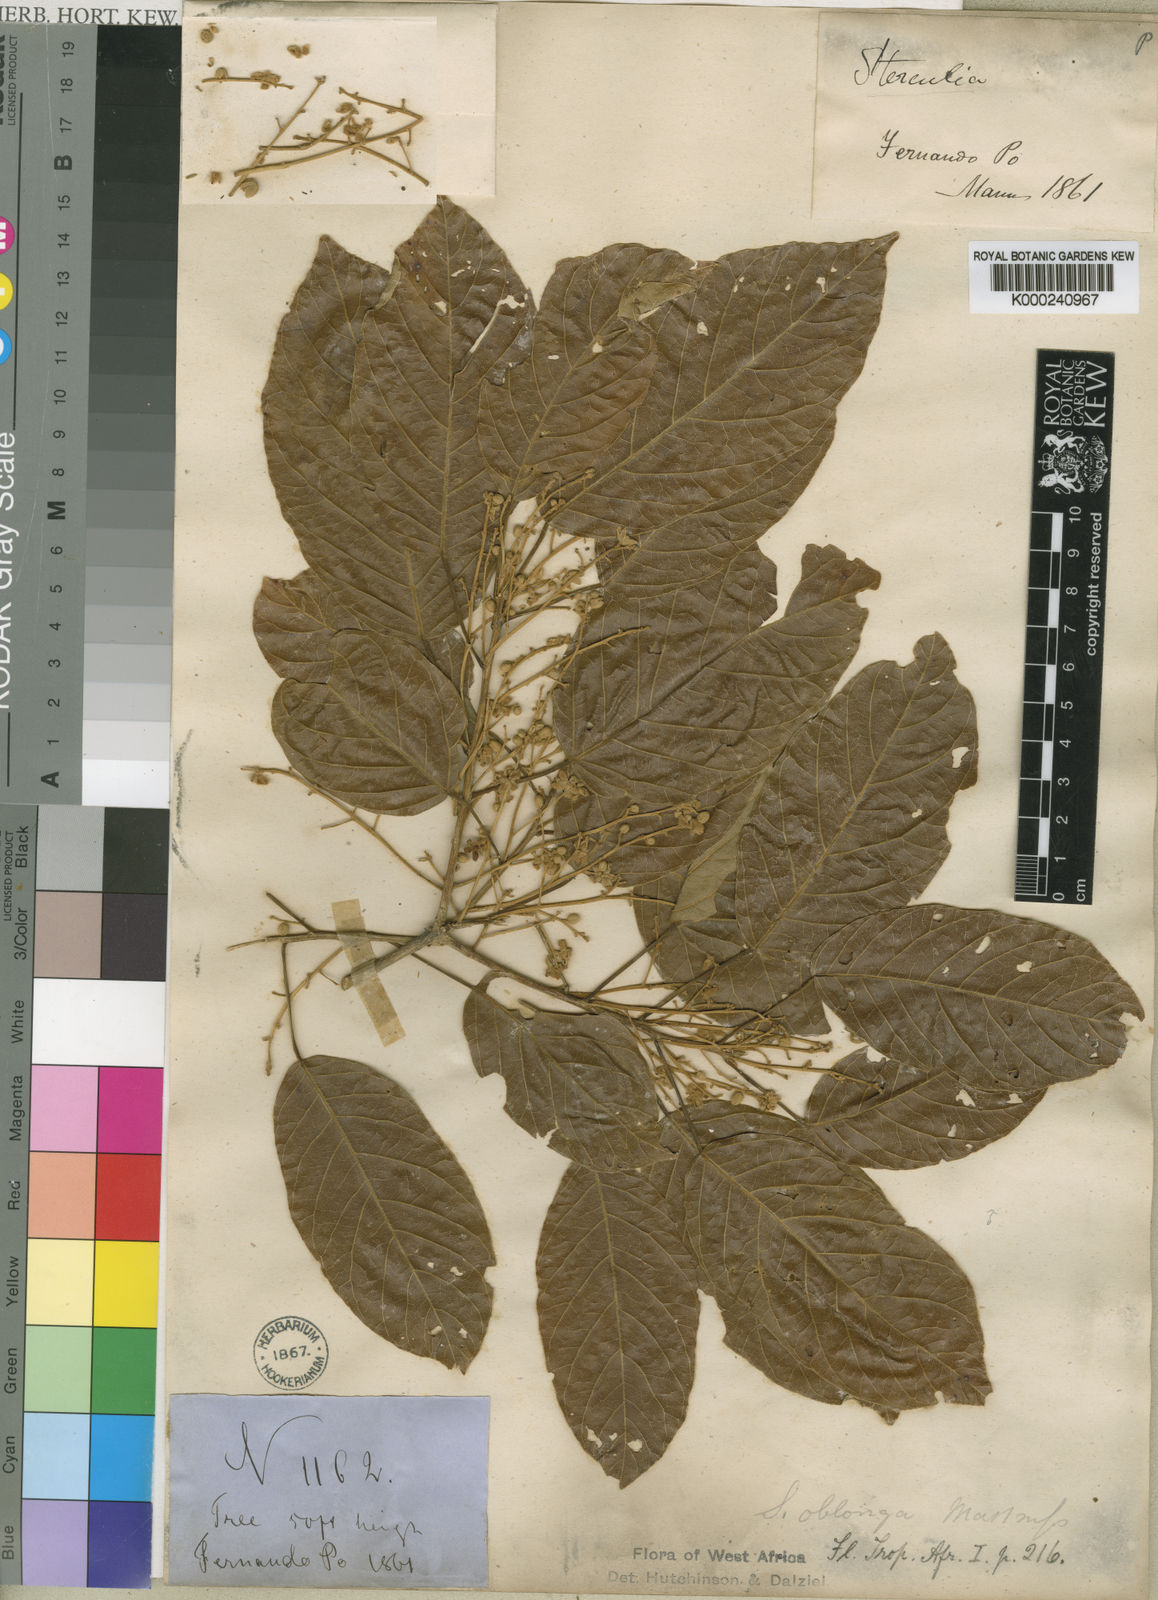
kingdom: Plantae
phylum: Tracheophyta
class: Magnoliopsida
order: Malvales
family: Malvaceae
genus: Sterculia
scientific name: Sterculia oblonga
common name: Yellow sterculia
